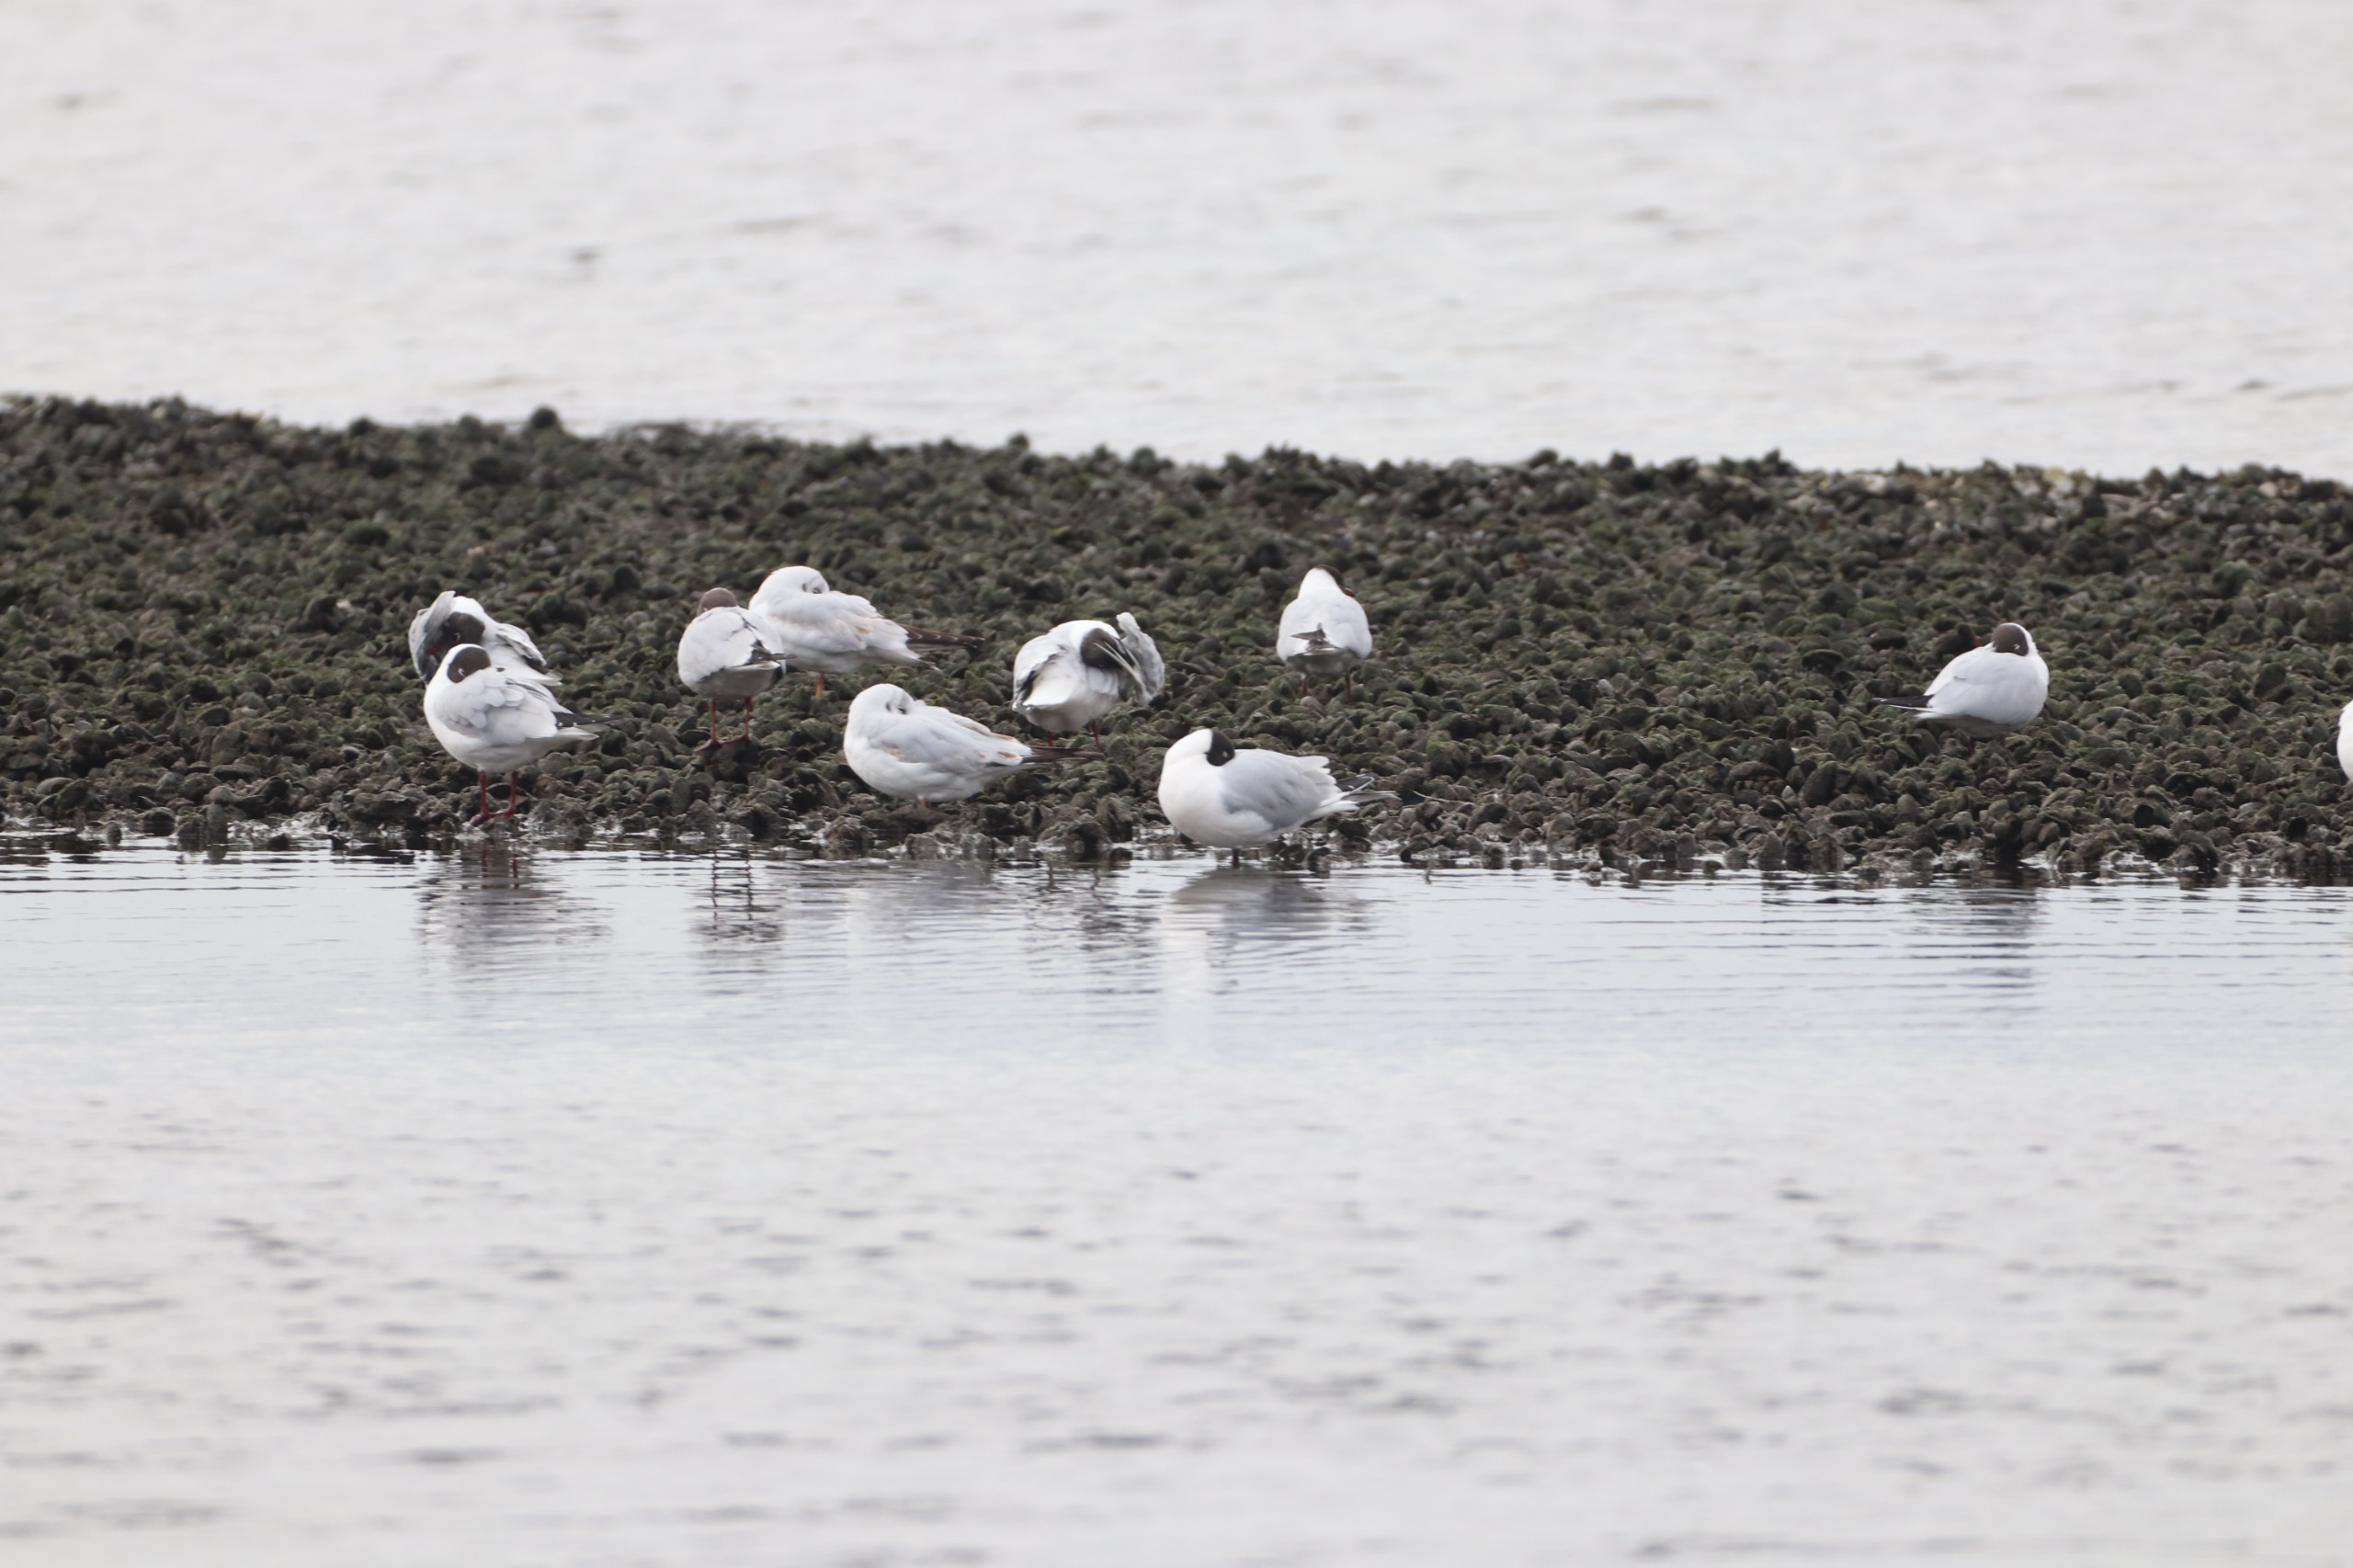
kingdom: Animalia
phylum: Chordata
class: Aves
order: Charadriiformes
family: Laridae
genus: Chroicocephalus
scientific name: Chroicocephalus ridibundus
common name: Hættemåge
